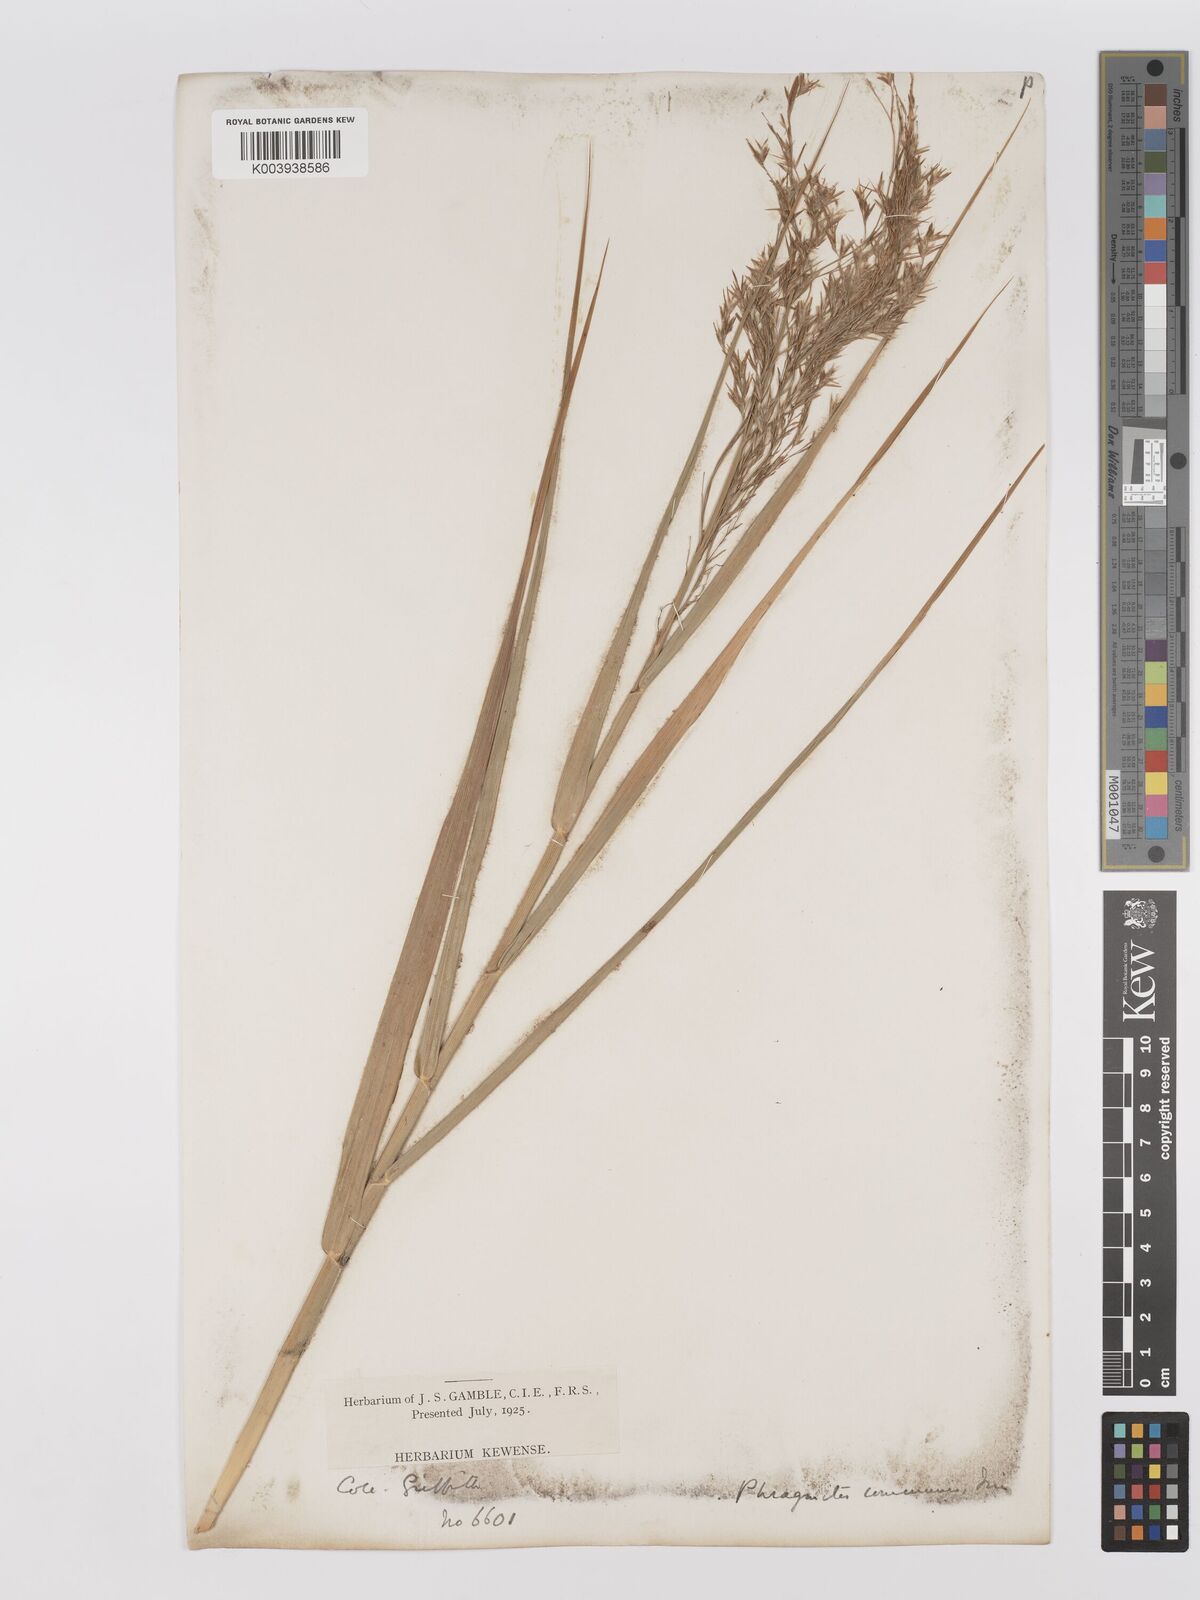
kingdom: Plantae
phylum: Tracheophyta
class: Liliopsida
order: Poales
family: Poaceae
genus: Phragmites
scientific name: Phragmites australis
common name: Common reed
